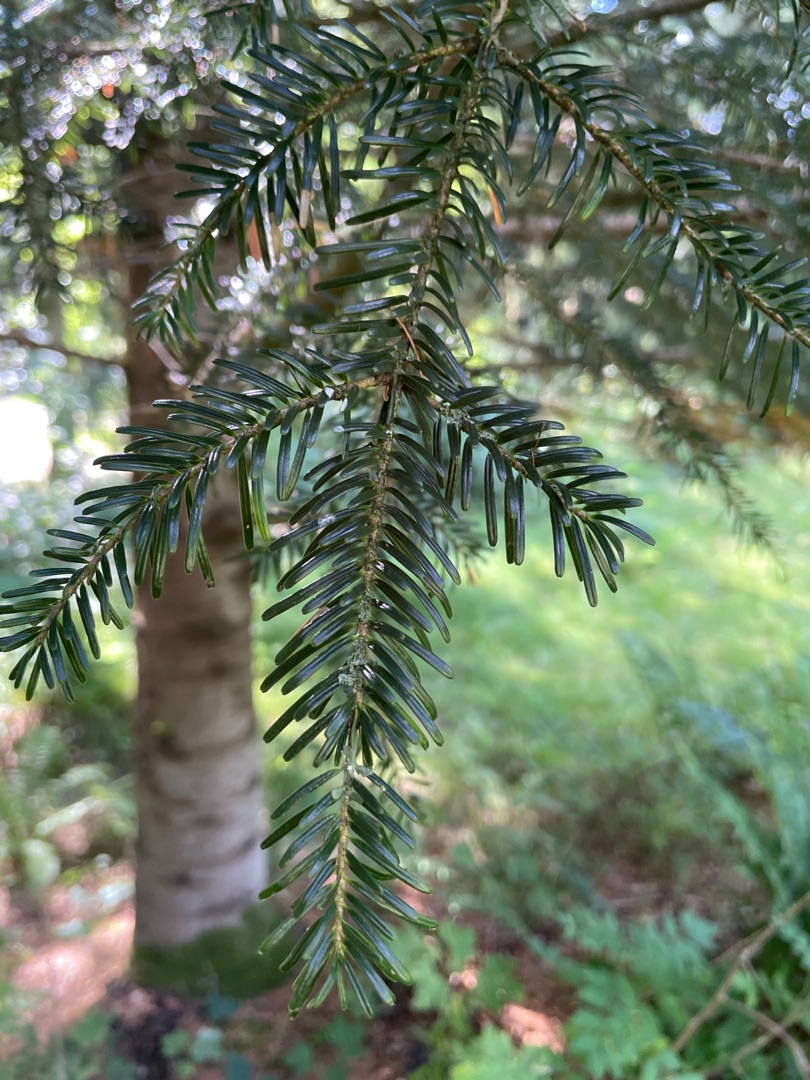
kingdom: Plantae
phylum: Tracheophyta
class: Pinopsida
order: Pinales
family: Pinaceae
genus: Abies
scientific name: Abies alba
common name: Almindelig ædelgran
